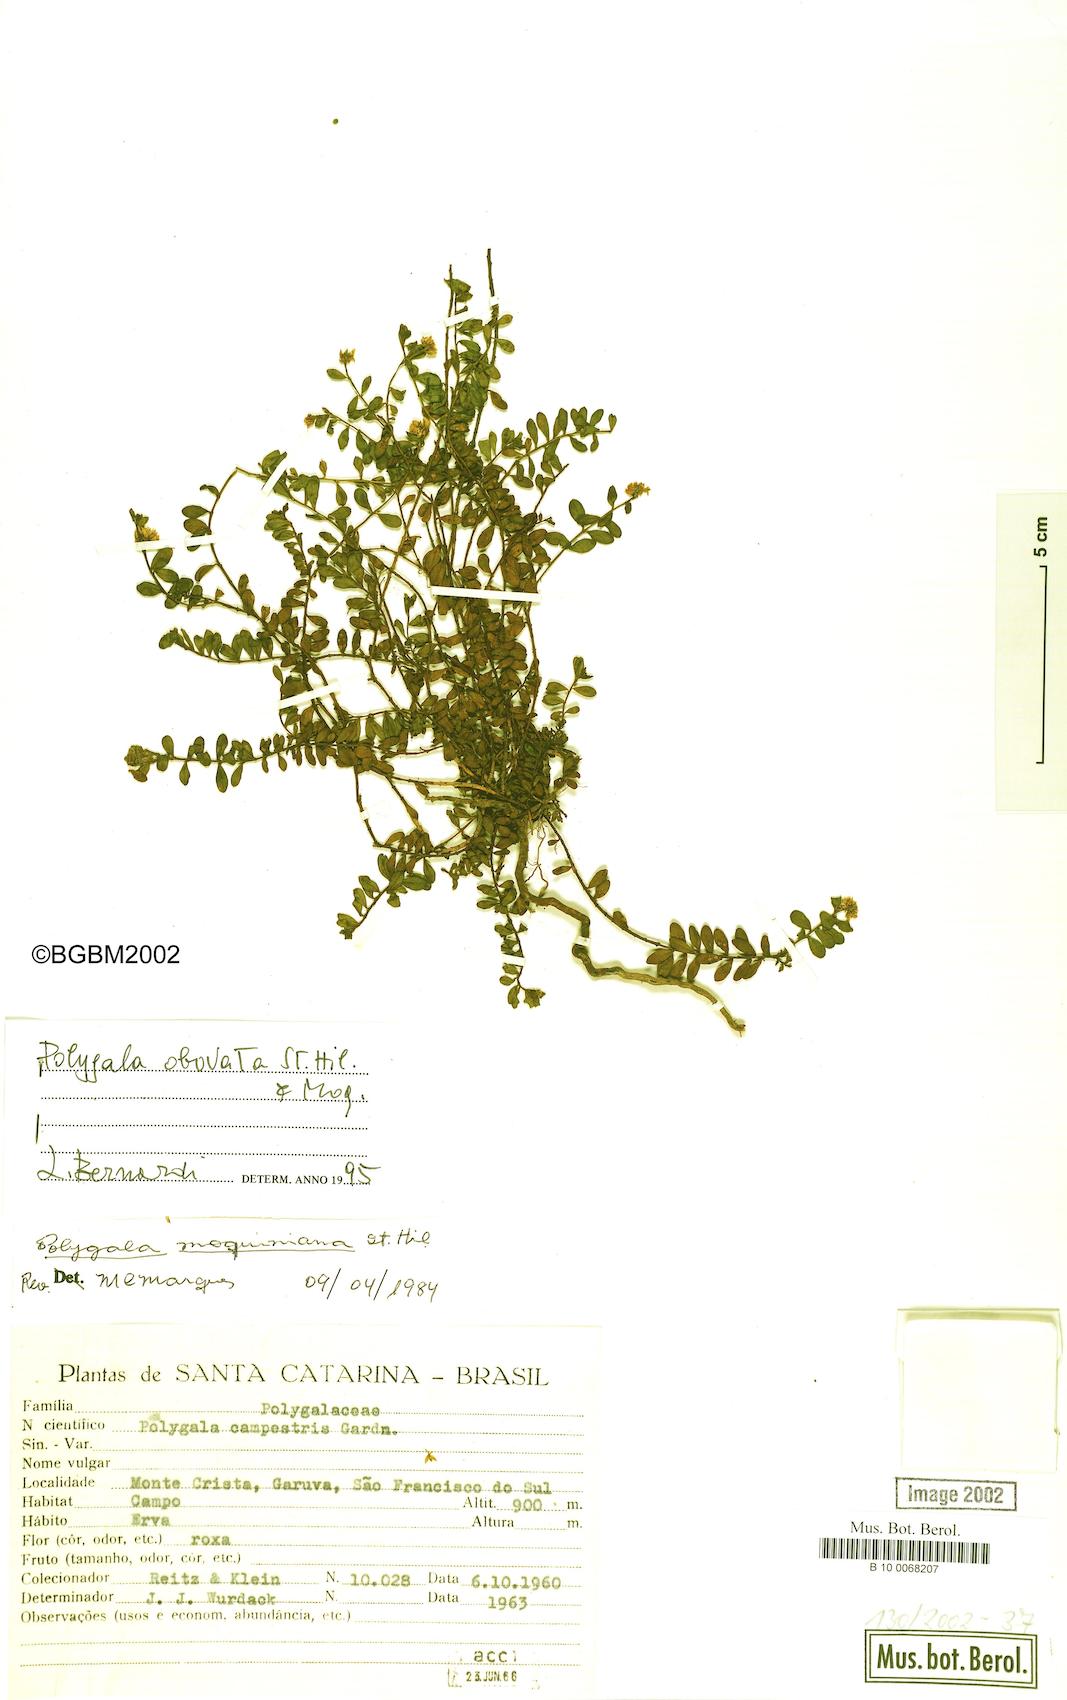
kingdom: Plantae
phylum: Tracheophyta
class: Magnoliopsida
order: Fabales
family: Polygalaceae
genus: Polygala
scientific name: Polygala obovata
